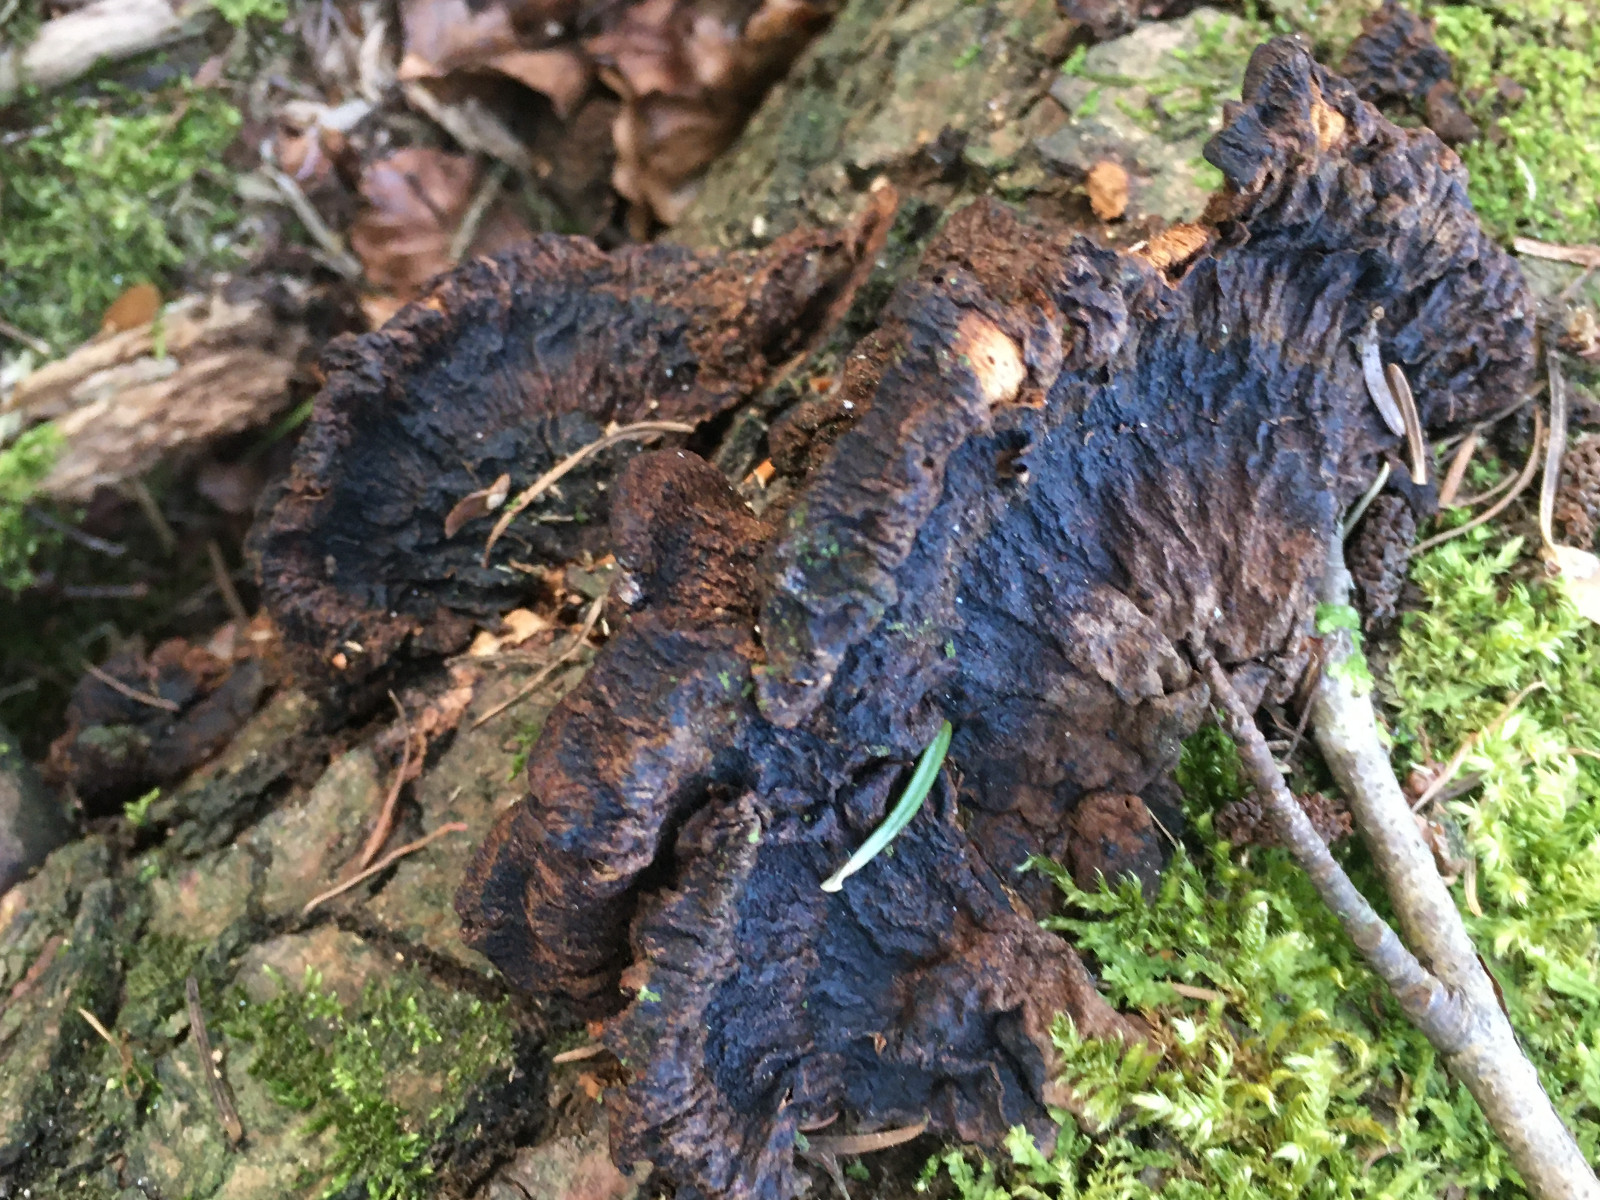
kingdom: Fungi
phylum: Basidiomycota
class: Agaricomycetes
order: Polyporales
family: Ischnodermataceae
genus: Ischnoderma
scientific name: Ischnoderma benzoinum
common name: gran-tjæreporesvamp
